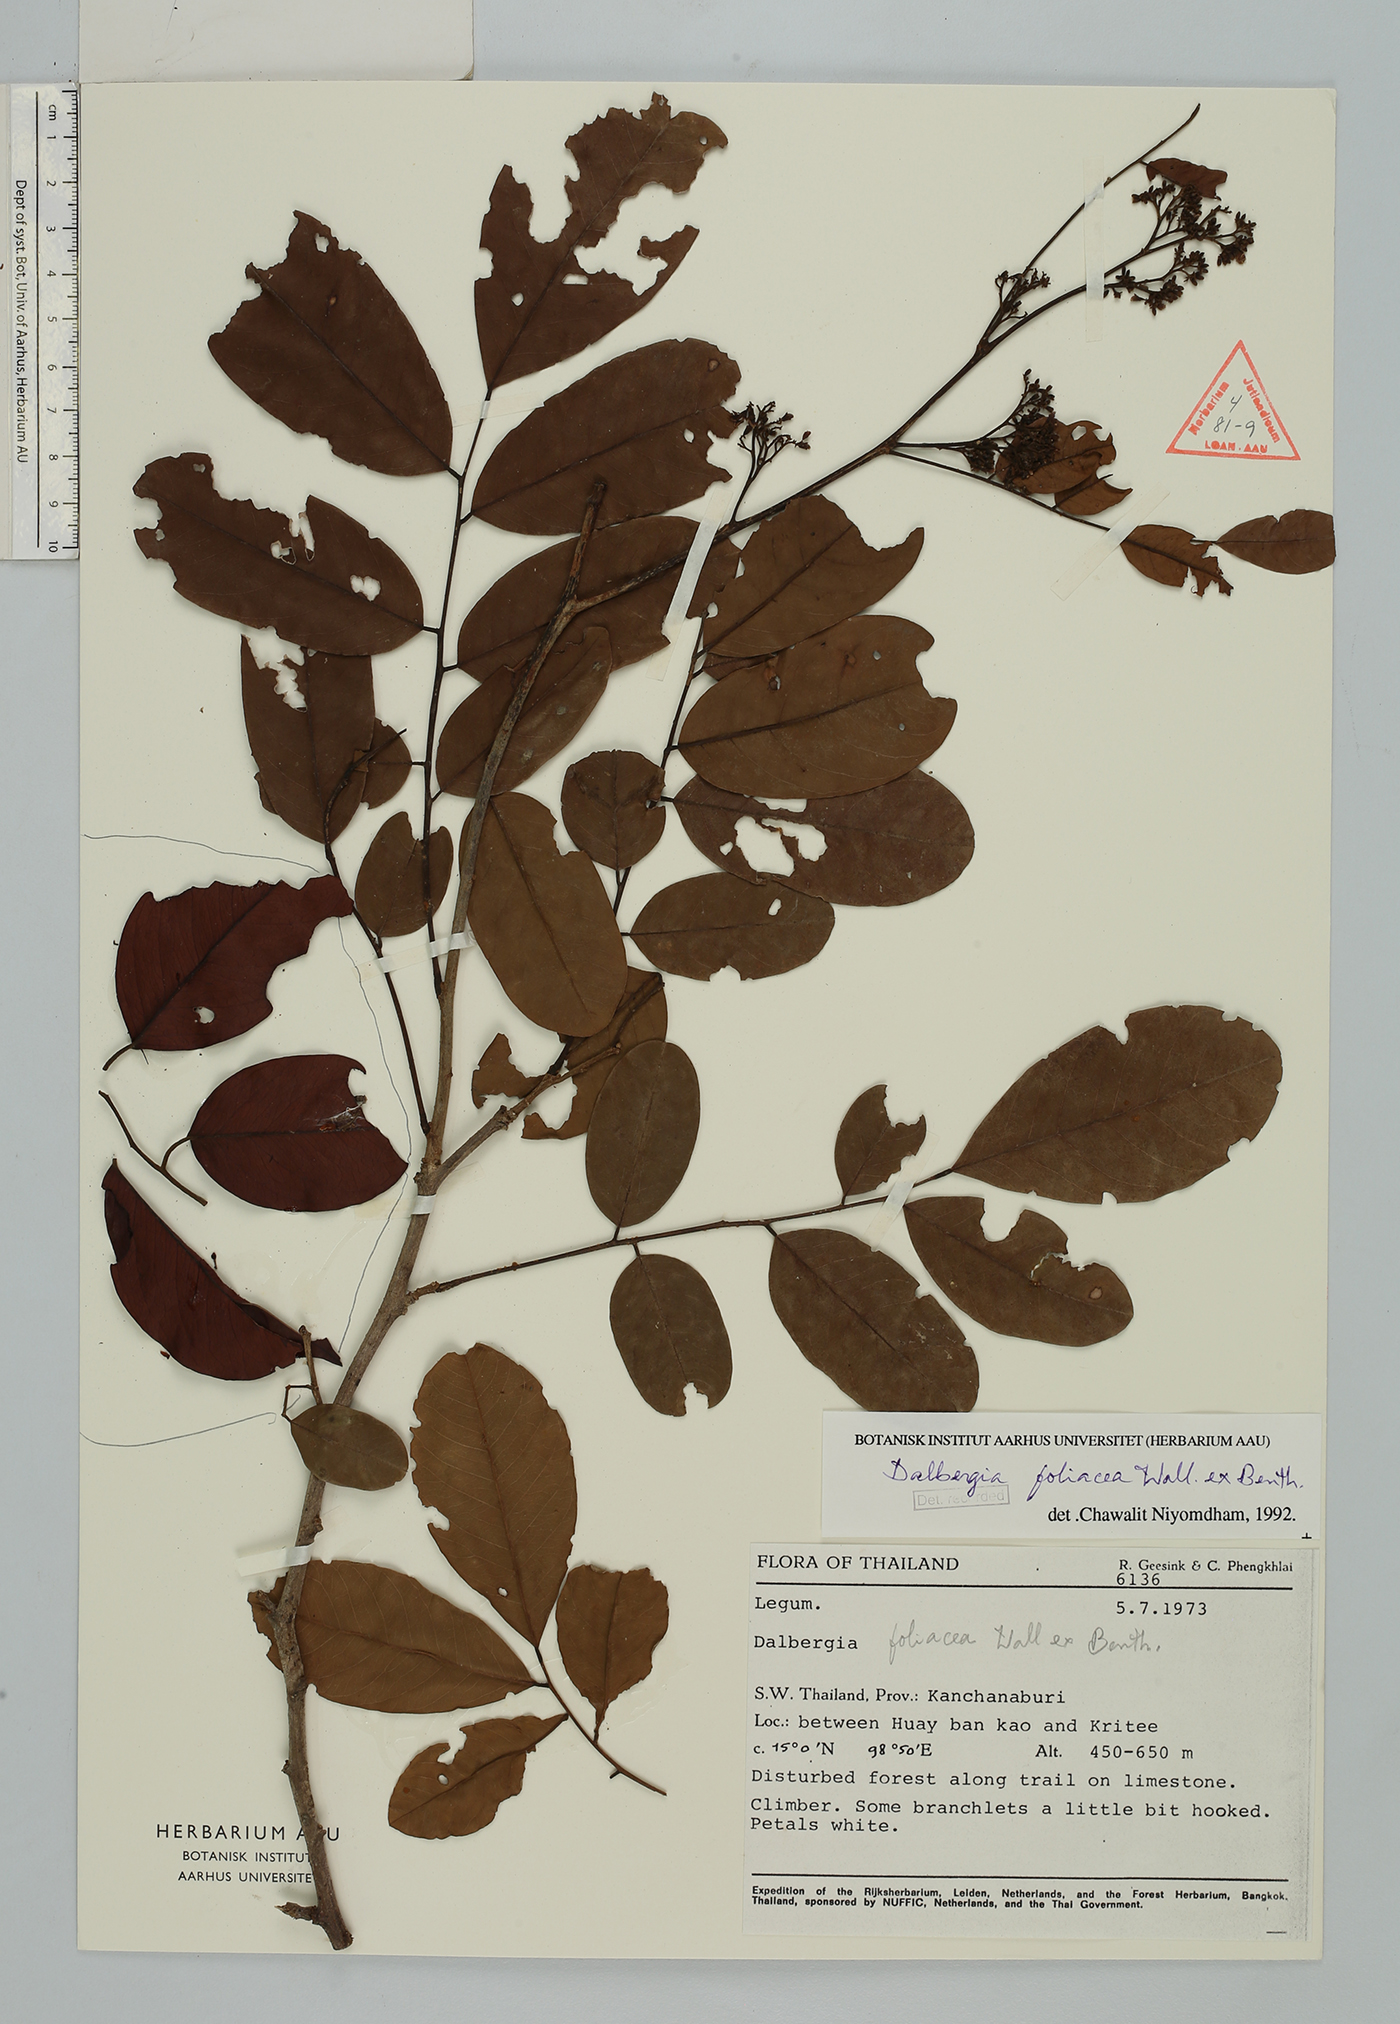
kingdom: Plantae
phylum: Tracheophyta
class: Magnoliopsida
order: Fabales
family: Fabaceae
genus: Dalbergia
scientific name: Dalbergia foliosa
